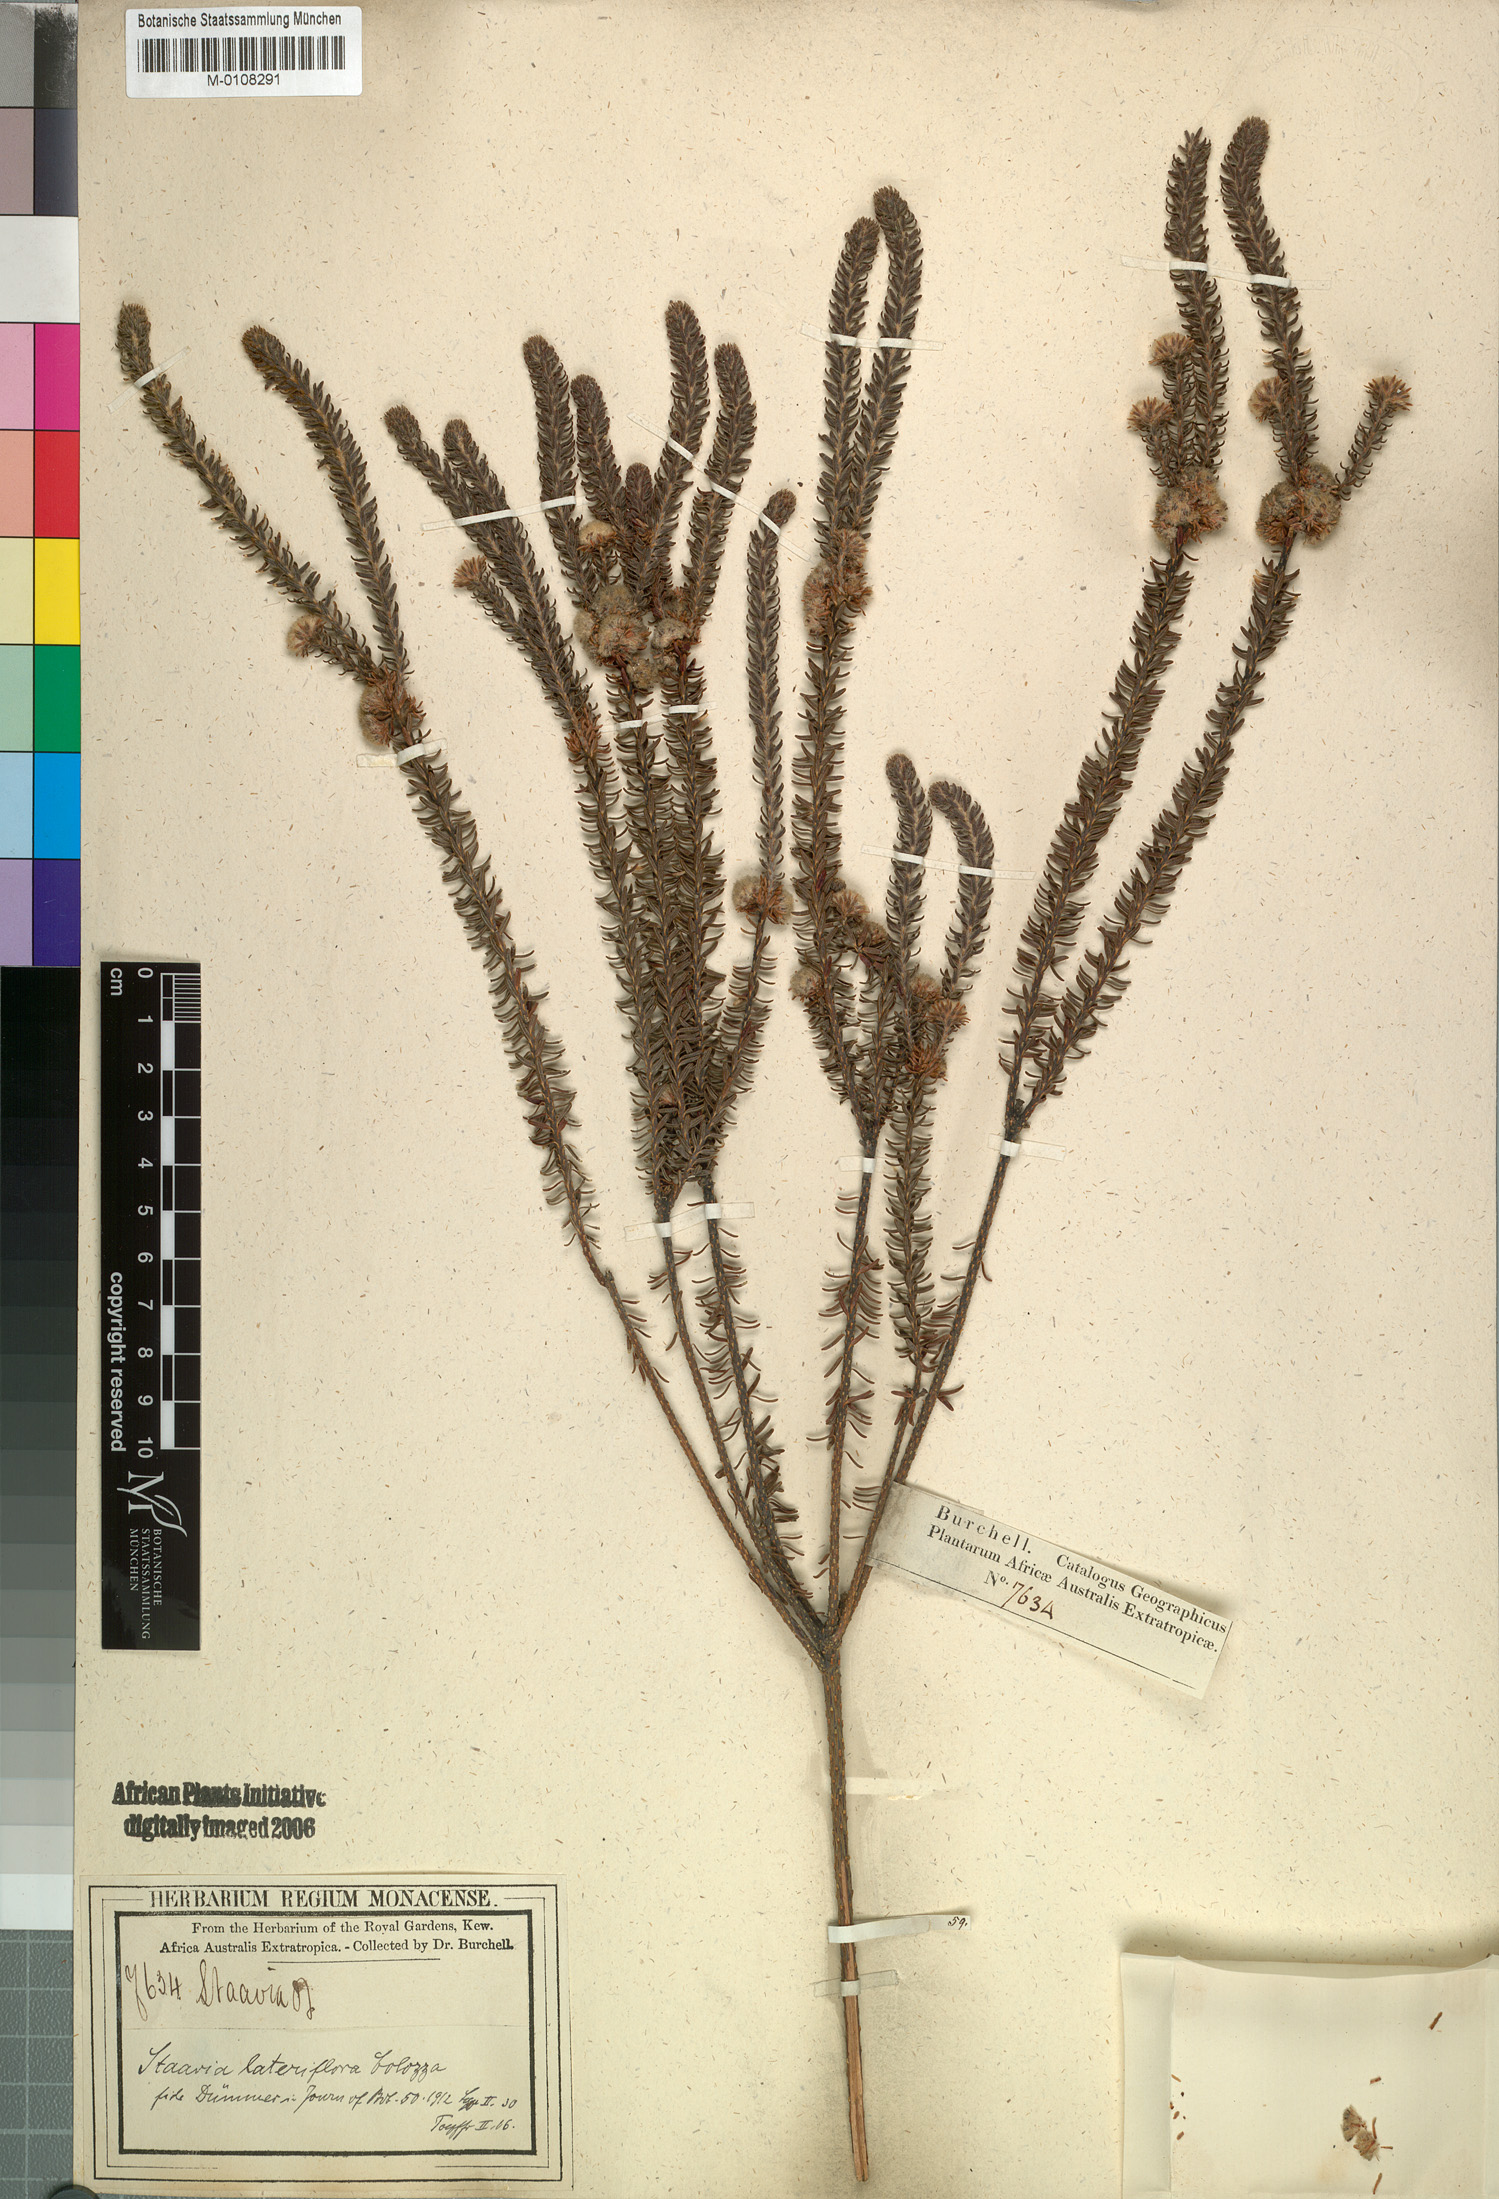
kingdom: Plantae
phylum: Tracheophyta
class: Magnoliopsida
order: Bruniales
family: Bruniaceae
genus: Staavia
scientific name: Staavia capitella
